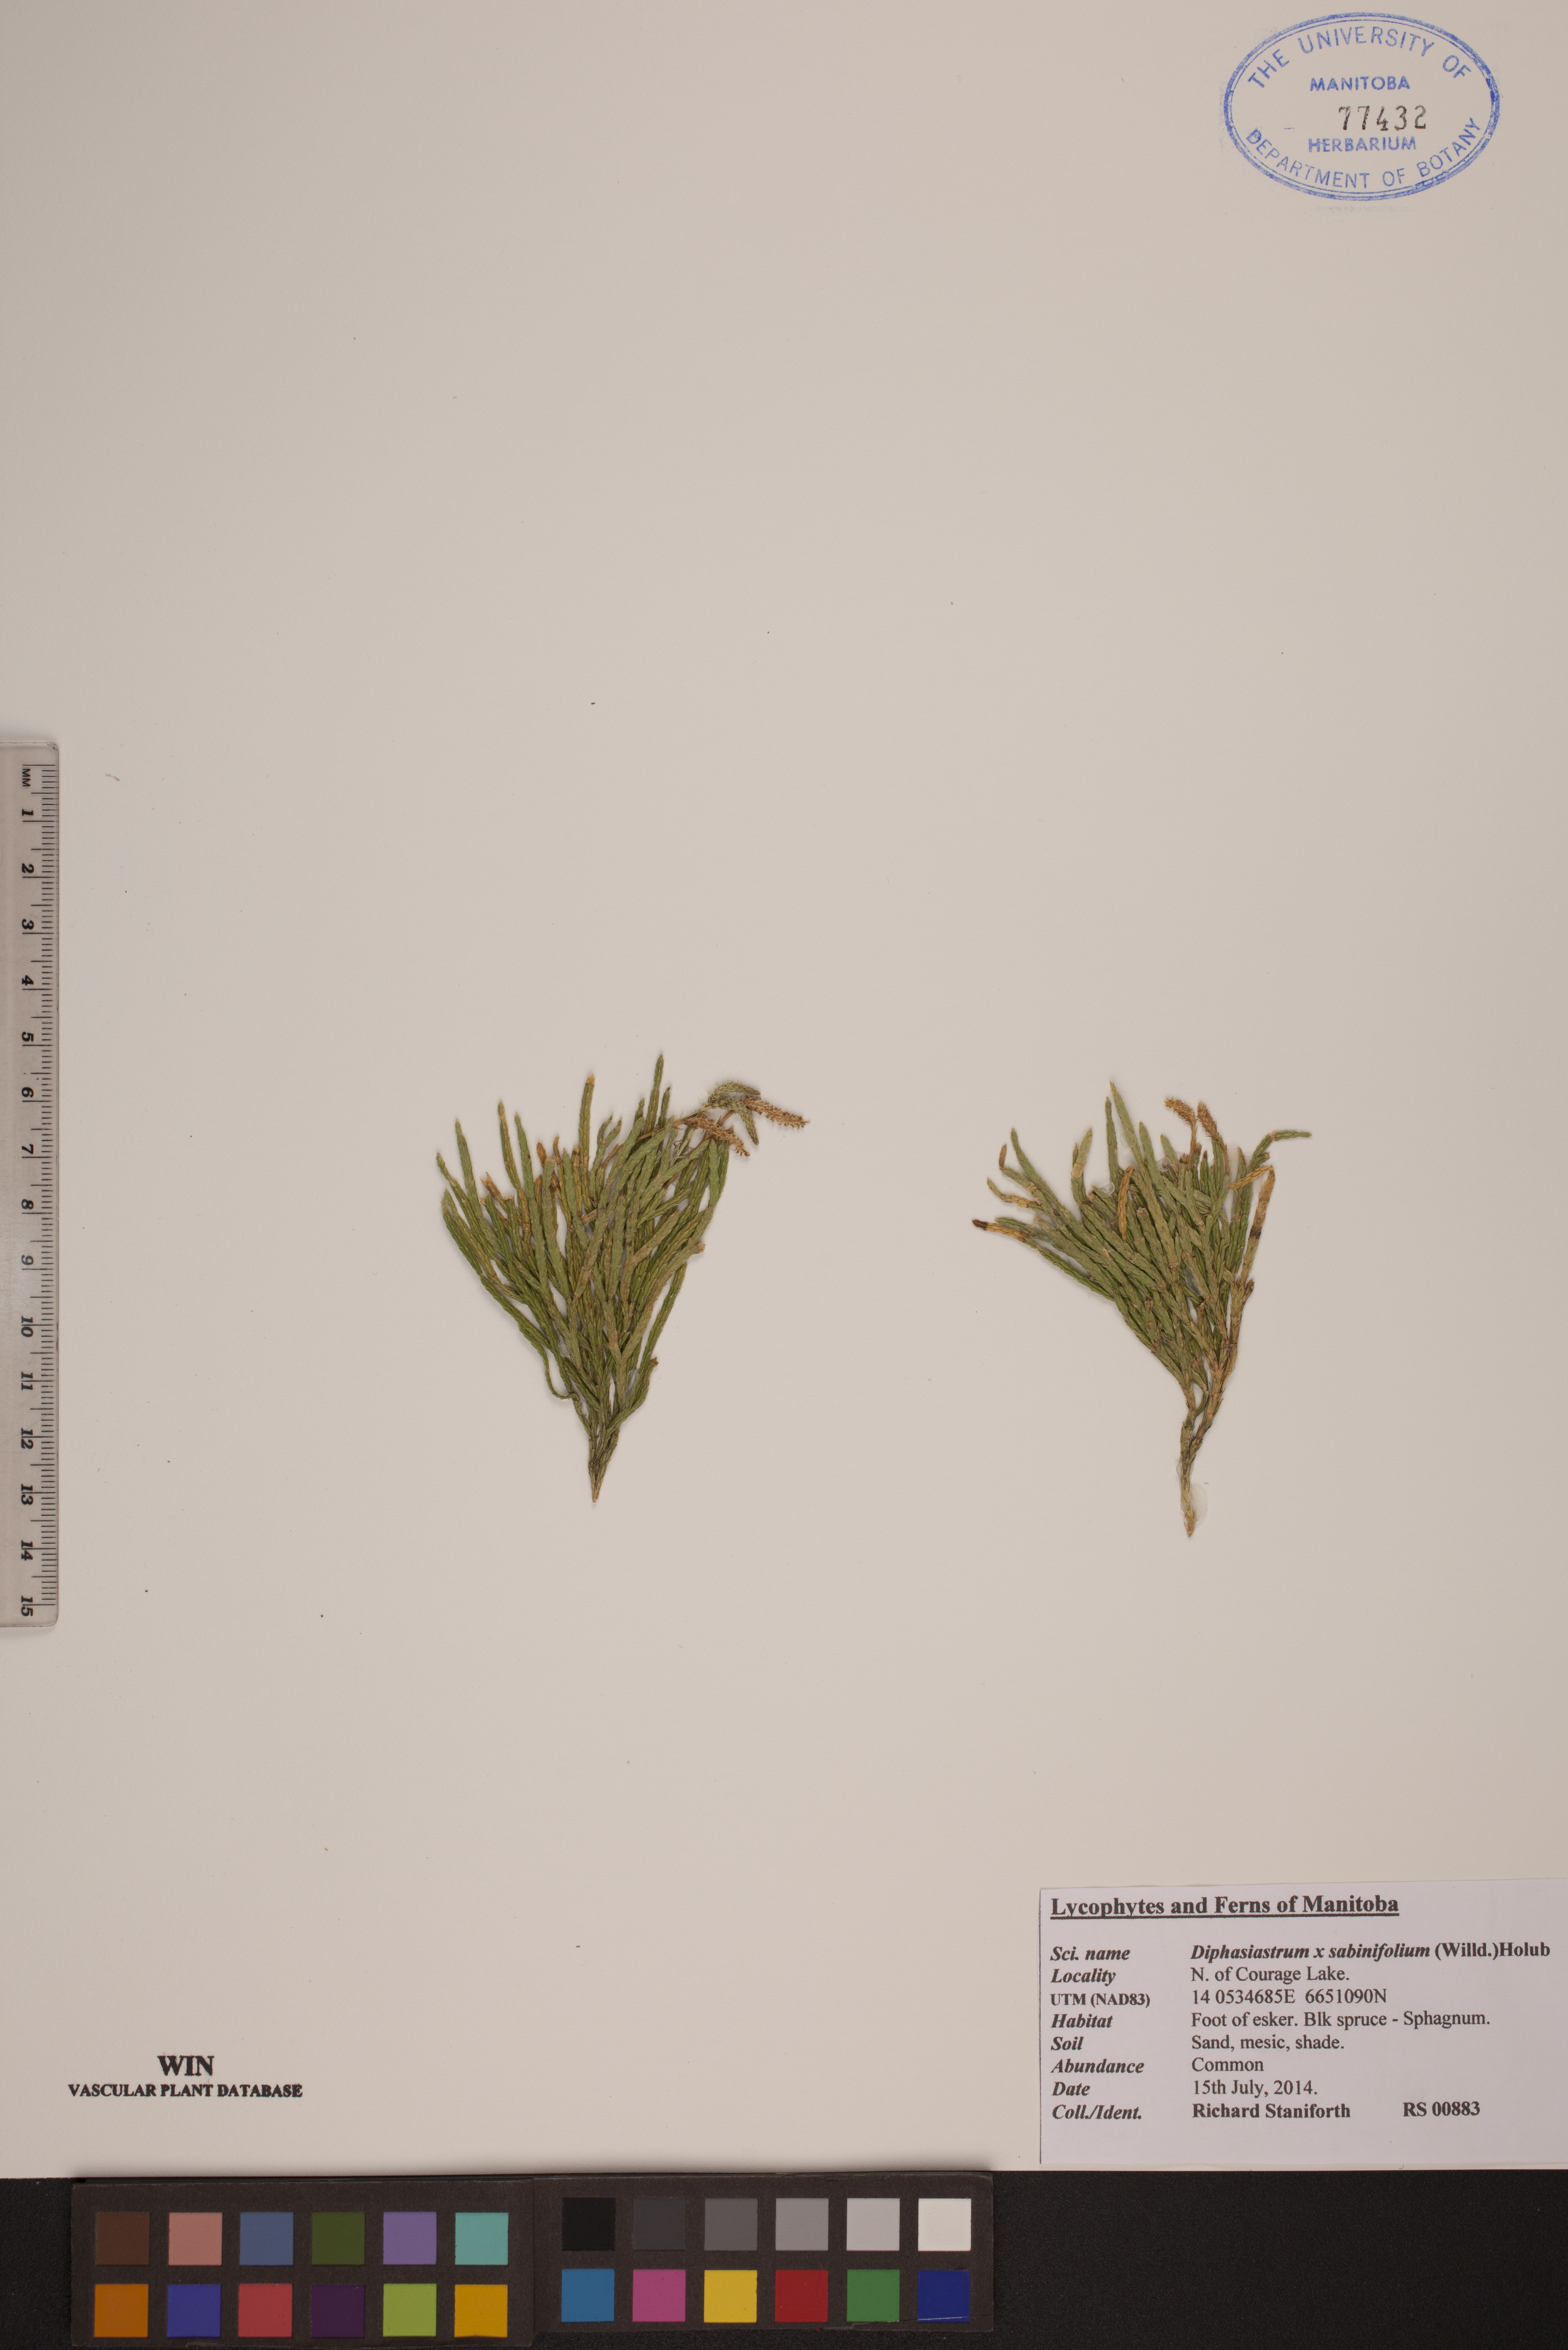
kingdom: Plantae
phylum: Tracheophyta
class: Lycopodiopsida
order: Lycopodiales
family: Lycopodiaceae
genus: Diphasiastrum
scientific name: Diphasiastrum sabinifolium
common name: Juniper clubmoss
